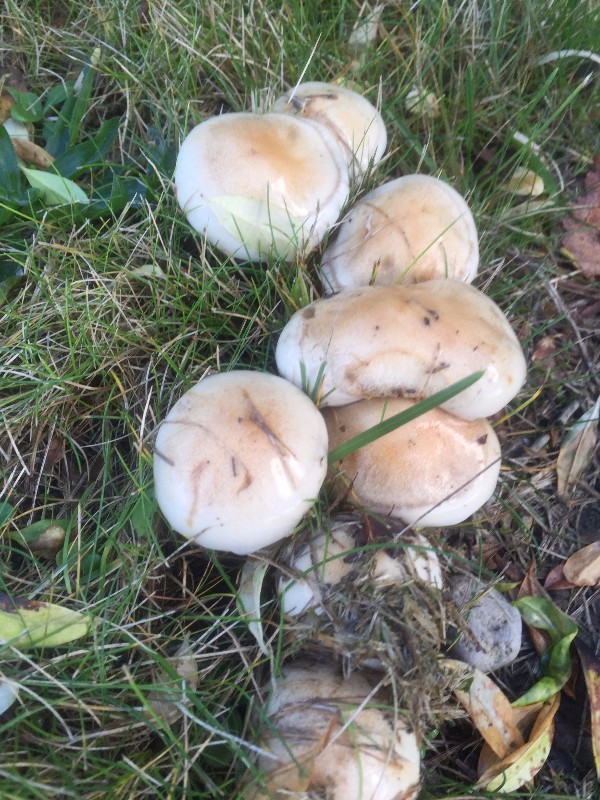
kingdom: Fungi
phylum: Basidiomycota
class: Agaricomycetes
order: Agaricales
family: Hymenogastraceae
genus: Hebeloma
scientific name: Hebeloma
